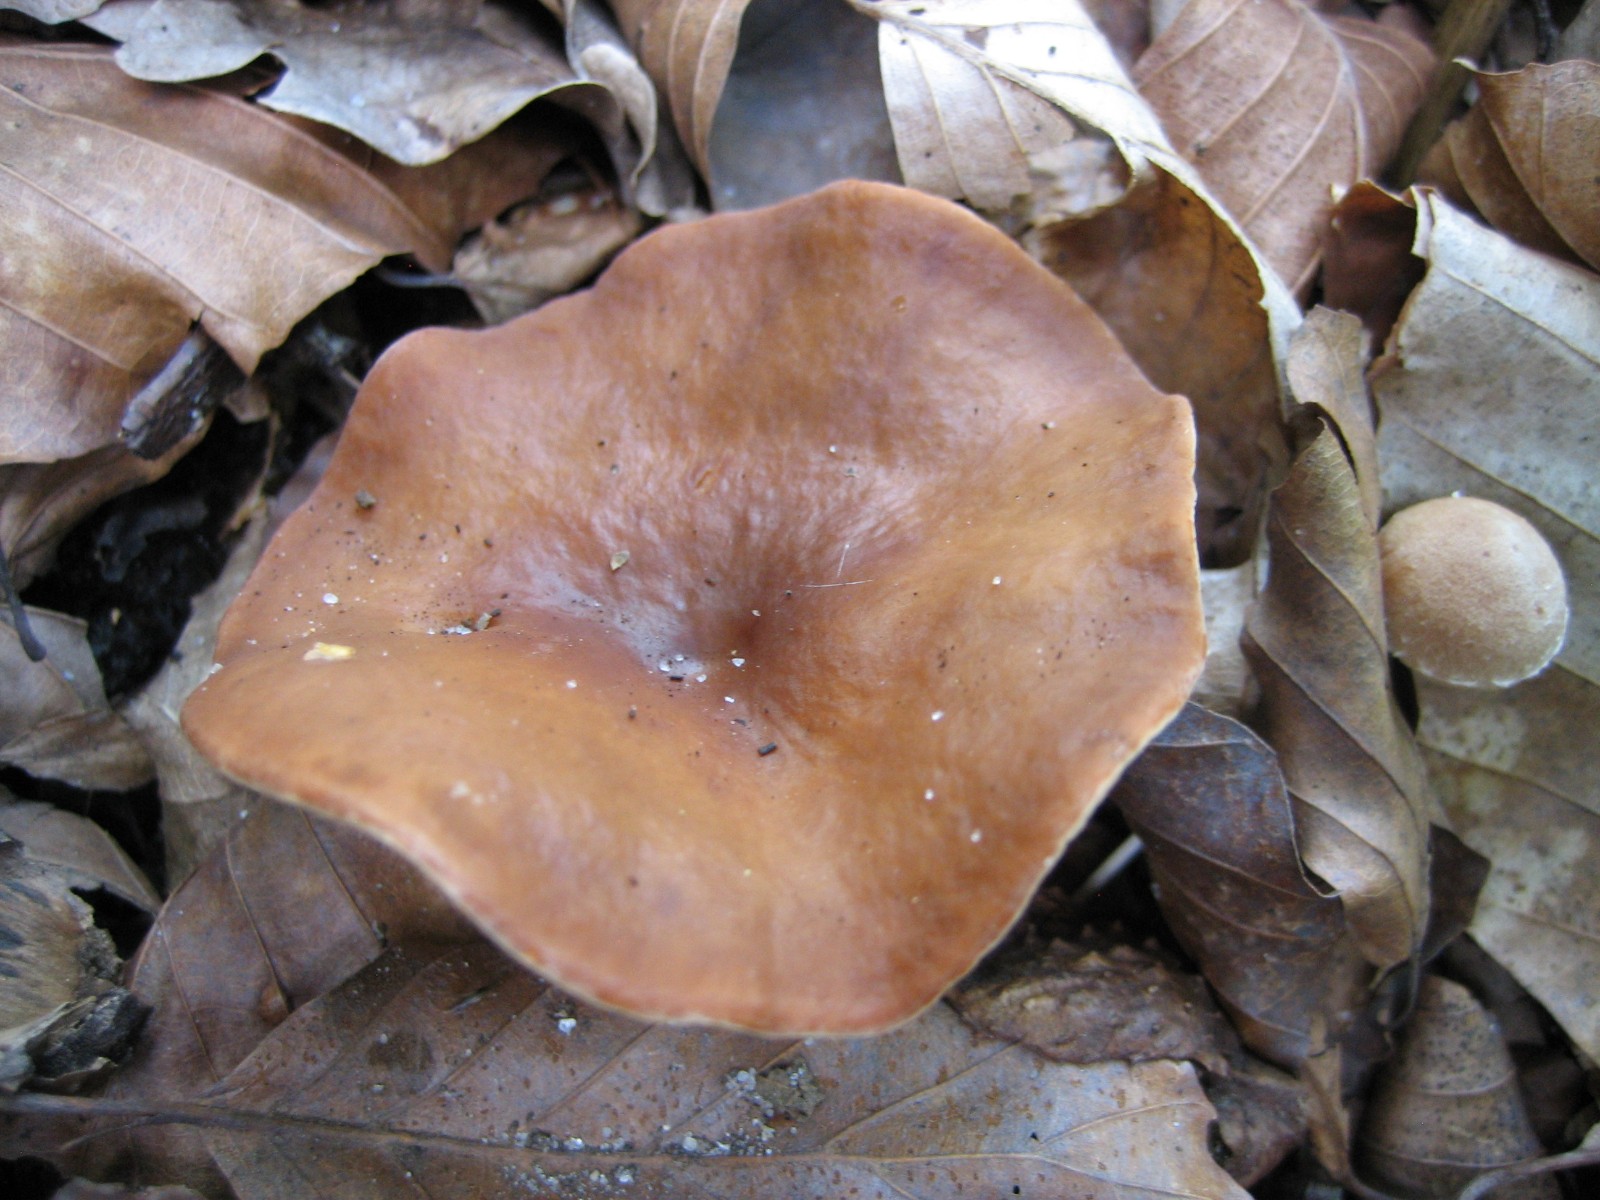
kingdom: Fungi
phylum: Basidiomycota
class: Agaricomycetes
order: Russulales
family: Russulaceae
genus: Lactarius
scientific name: Lactarius subdulcis
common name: sødlig mælkehat
